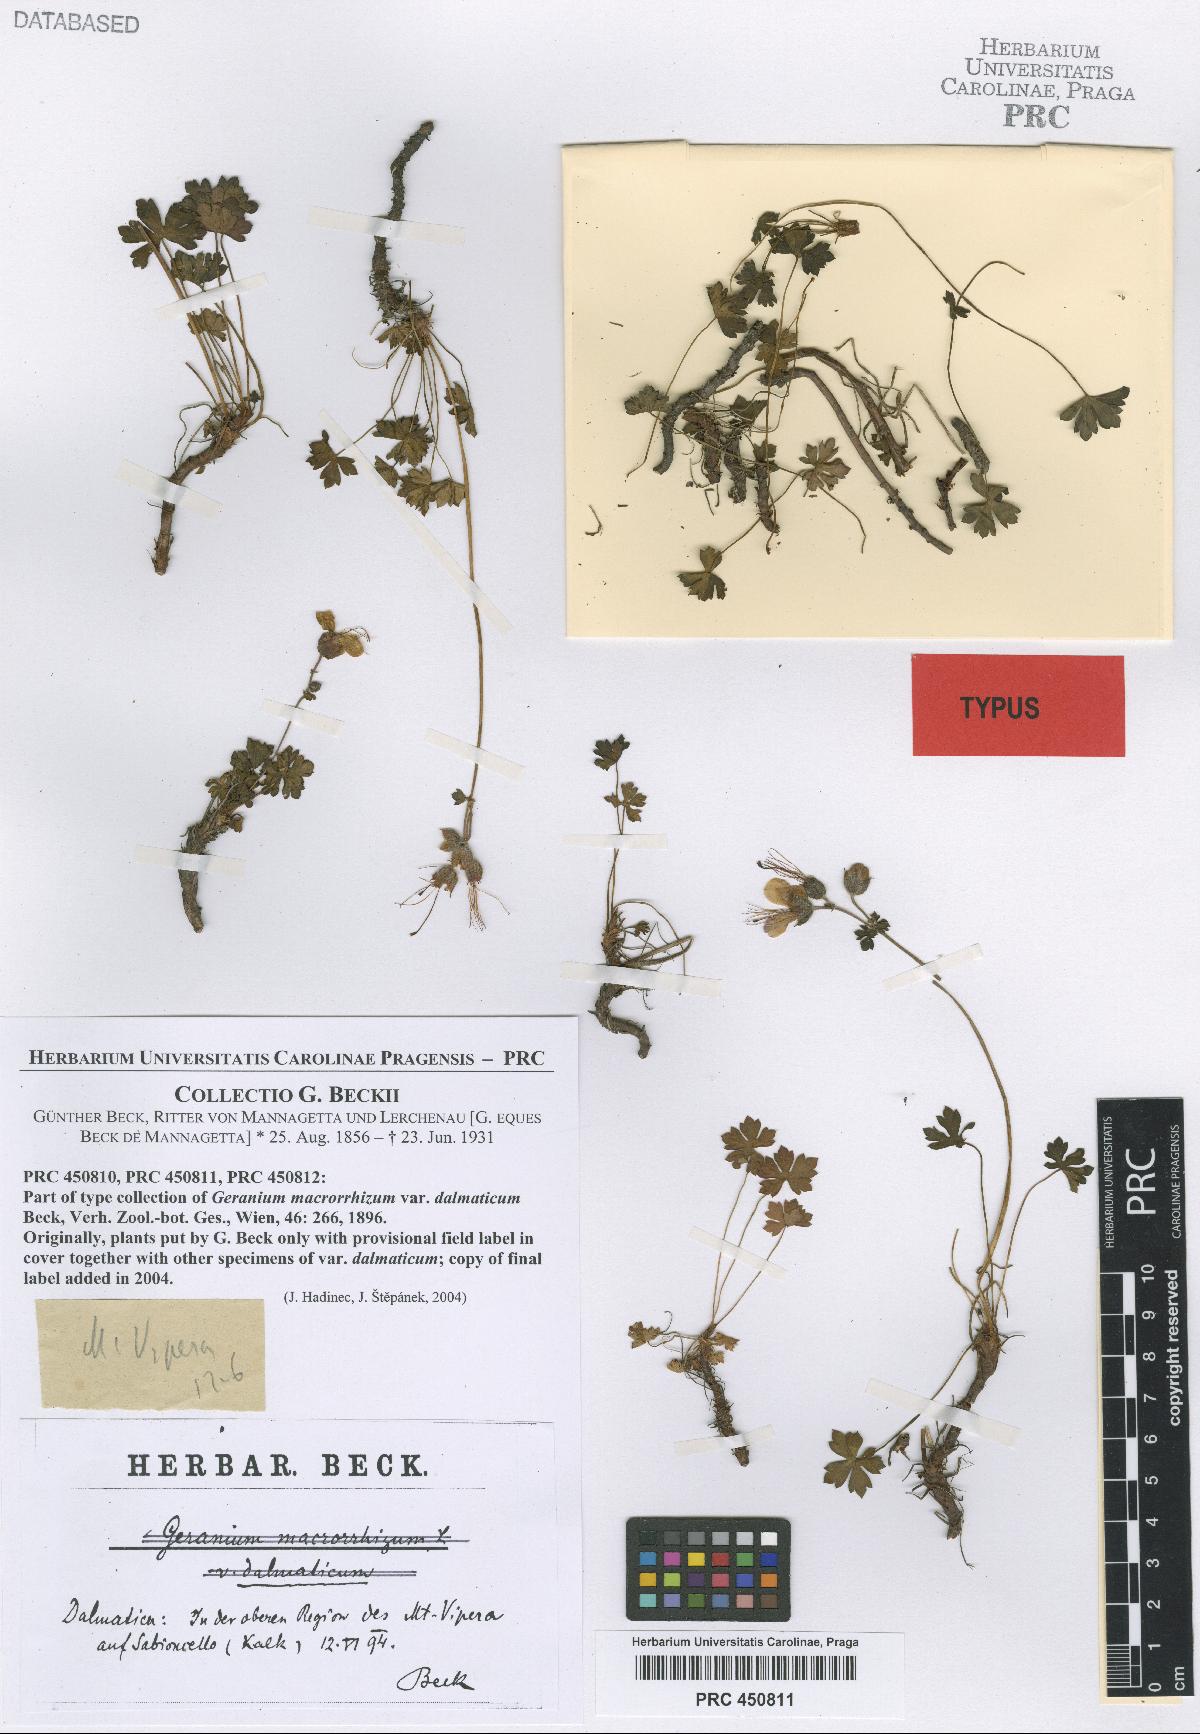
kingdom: Plantae
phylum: Tracheophyta
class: Magnoliopsida
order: Geraniales
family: Geraniaceae
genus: Geranium
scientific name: Geranium dalmaticum
